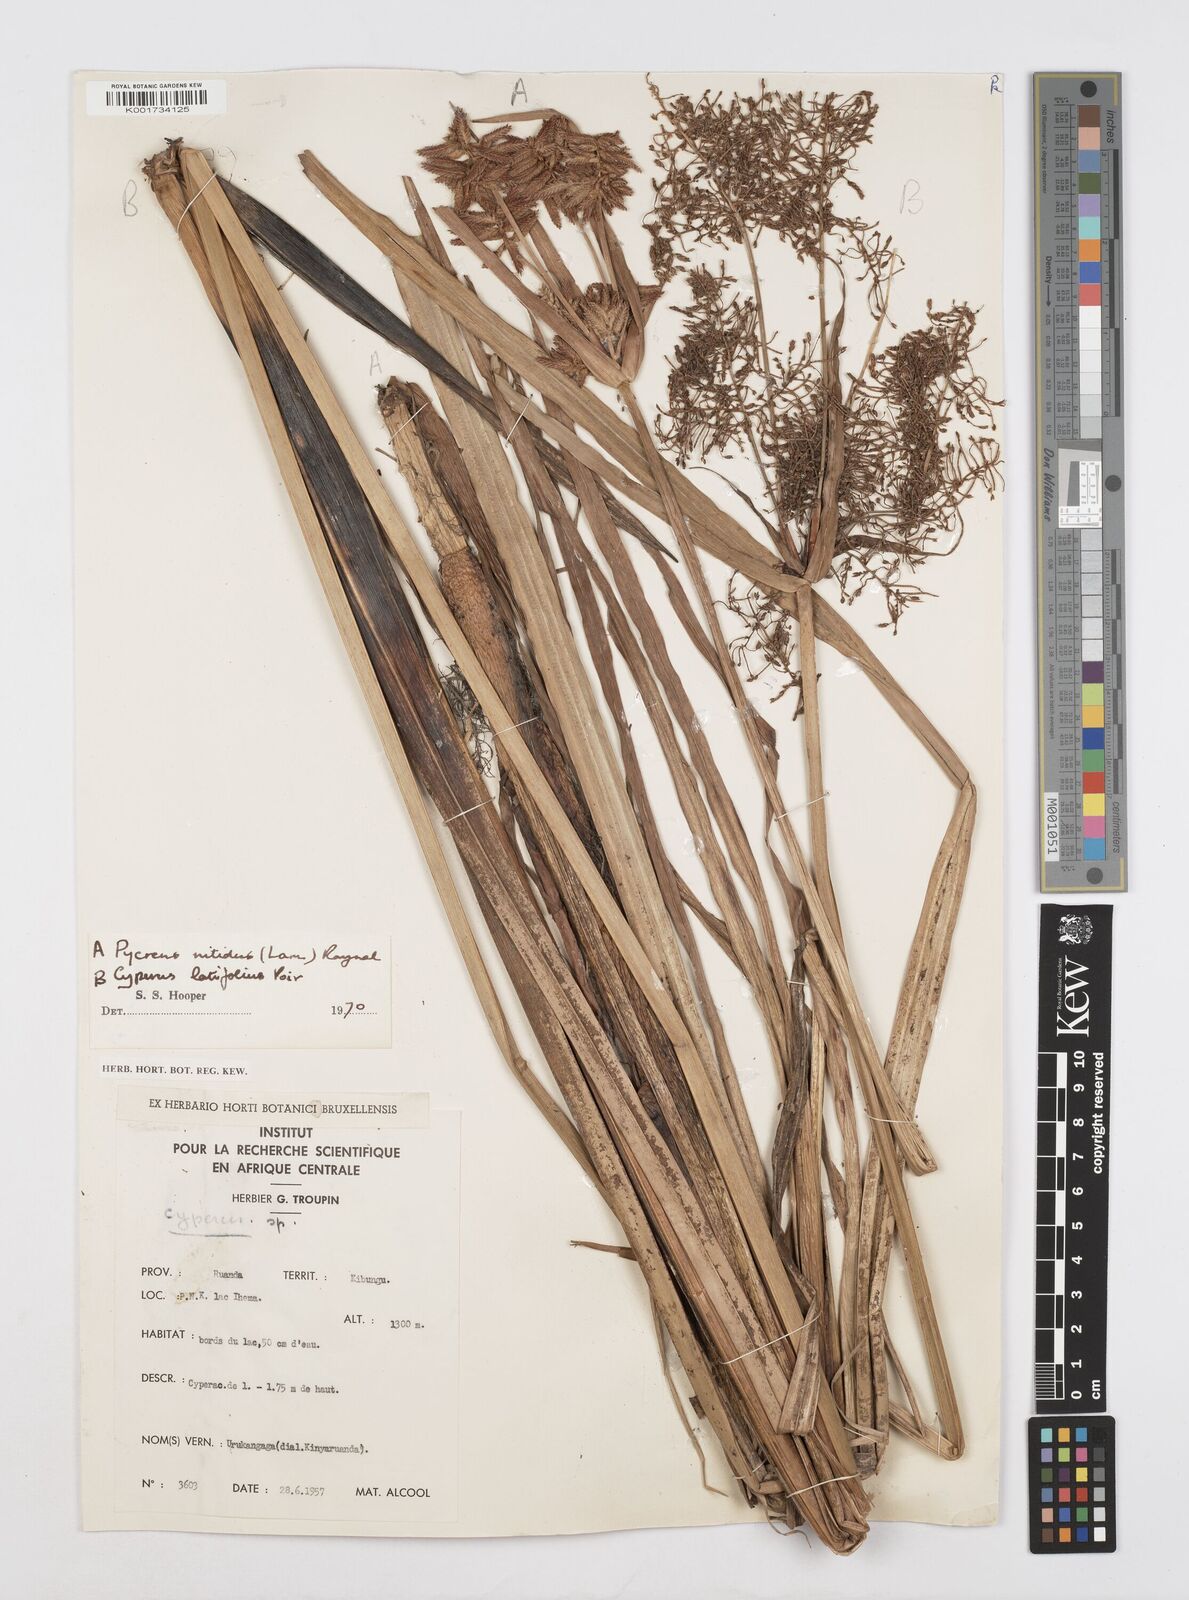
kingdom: Plantae
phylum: Tracheophyta
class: Liliopsida
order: Poales
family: Cyperaceae
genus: Cyperus
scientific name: Cyperus nitidus
